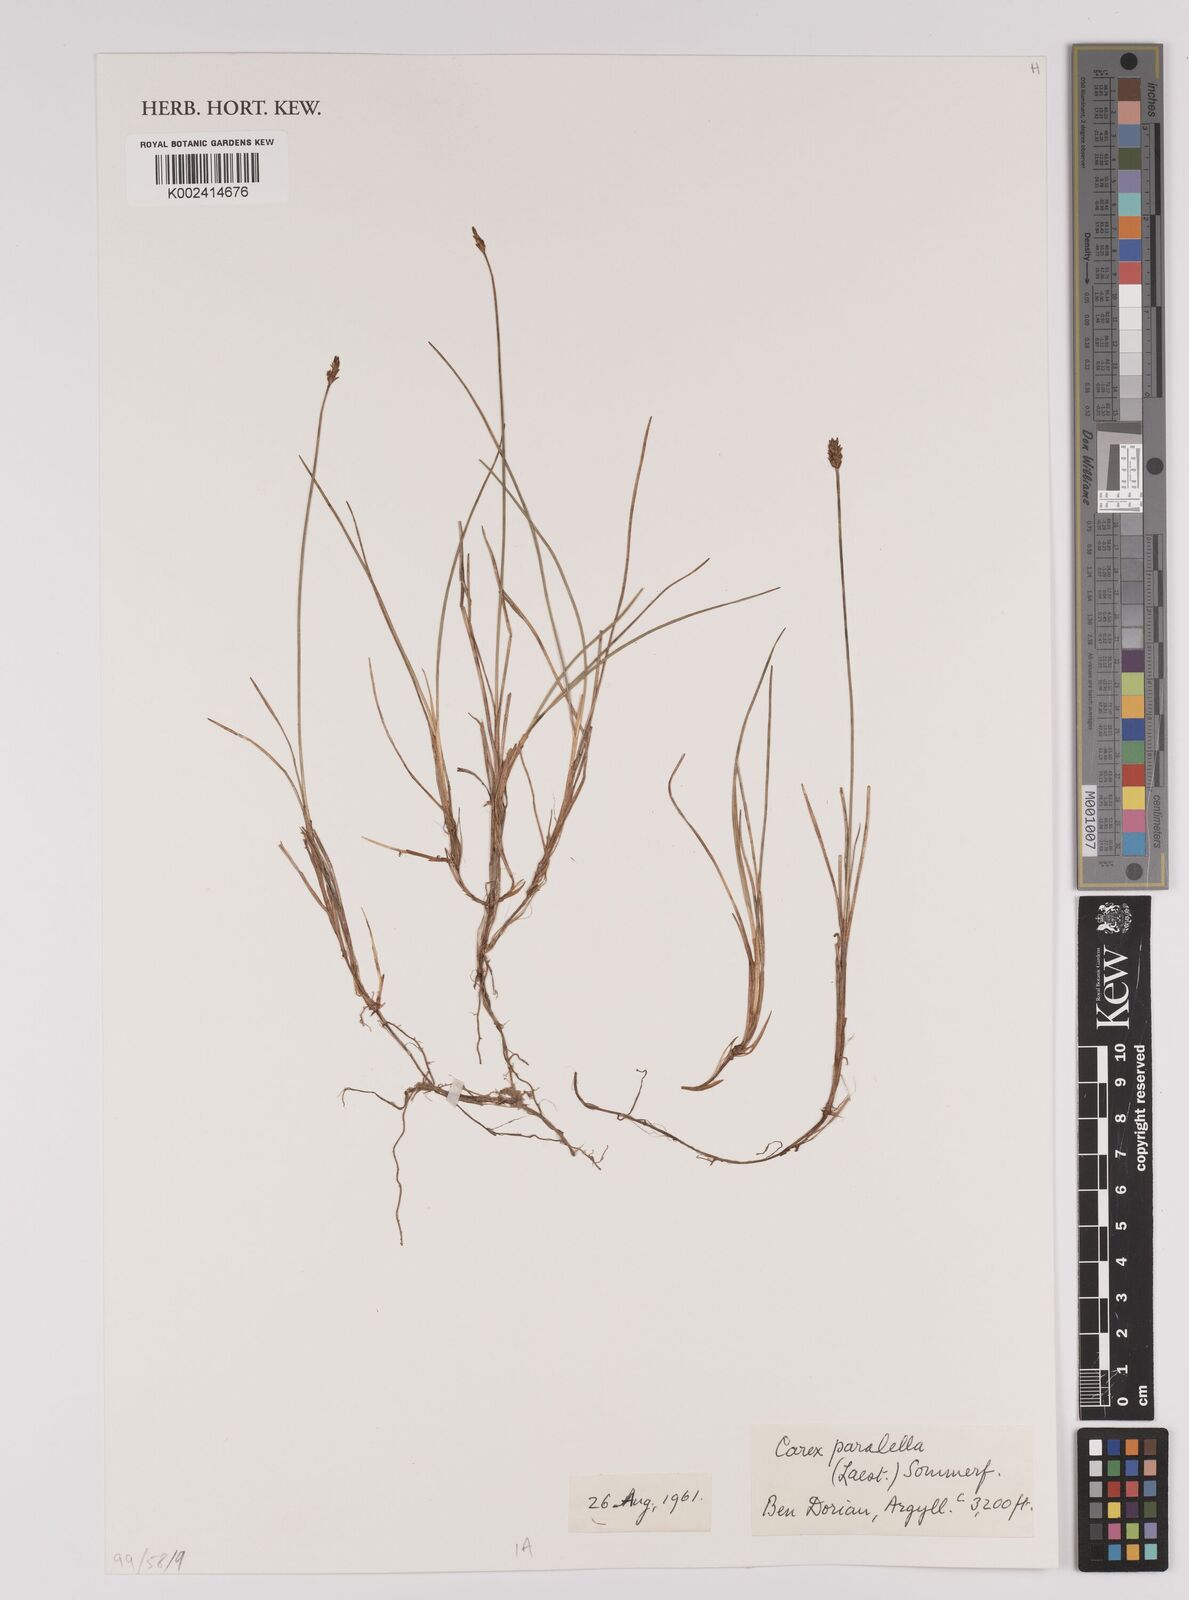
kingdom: Plantae
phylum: Tracheophyta
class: Liliopsida
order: Poales
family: Cyperaceae
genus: Carex
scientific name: Carex parallela
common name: Parallel sedge
